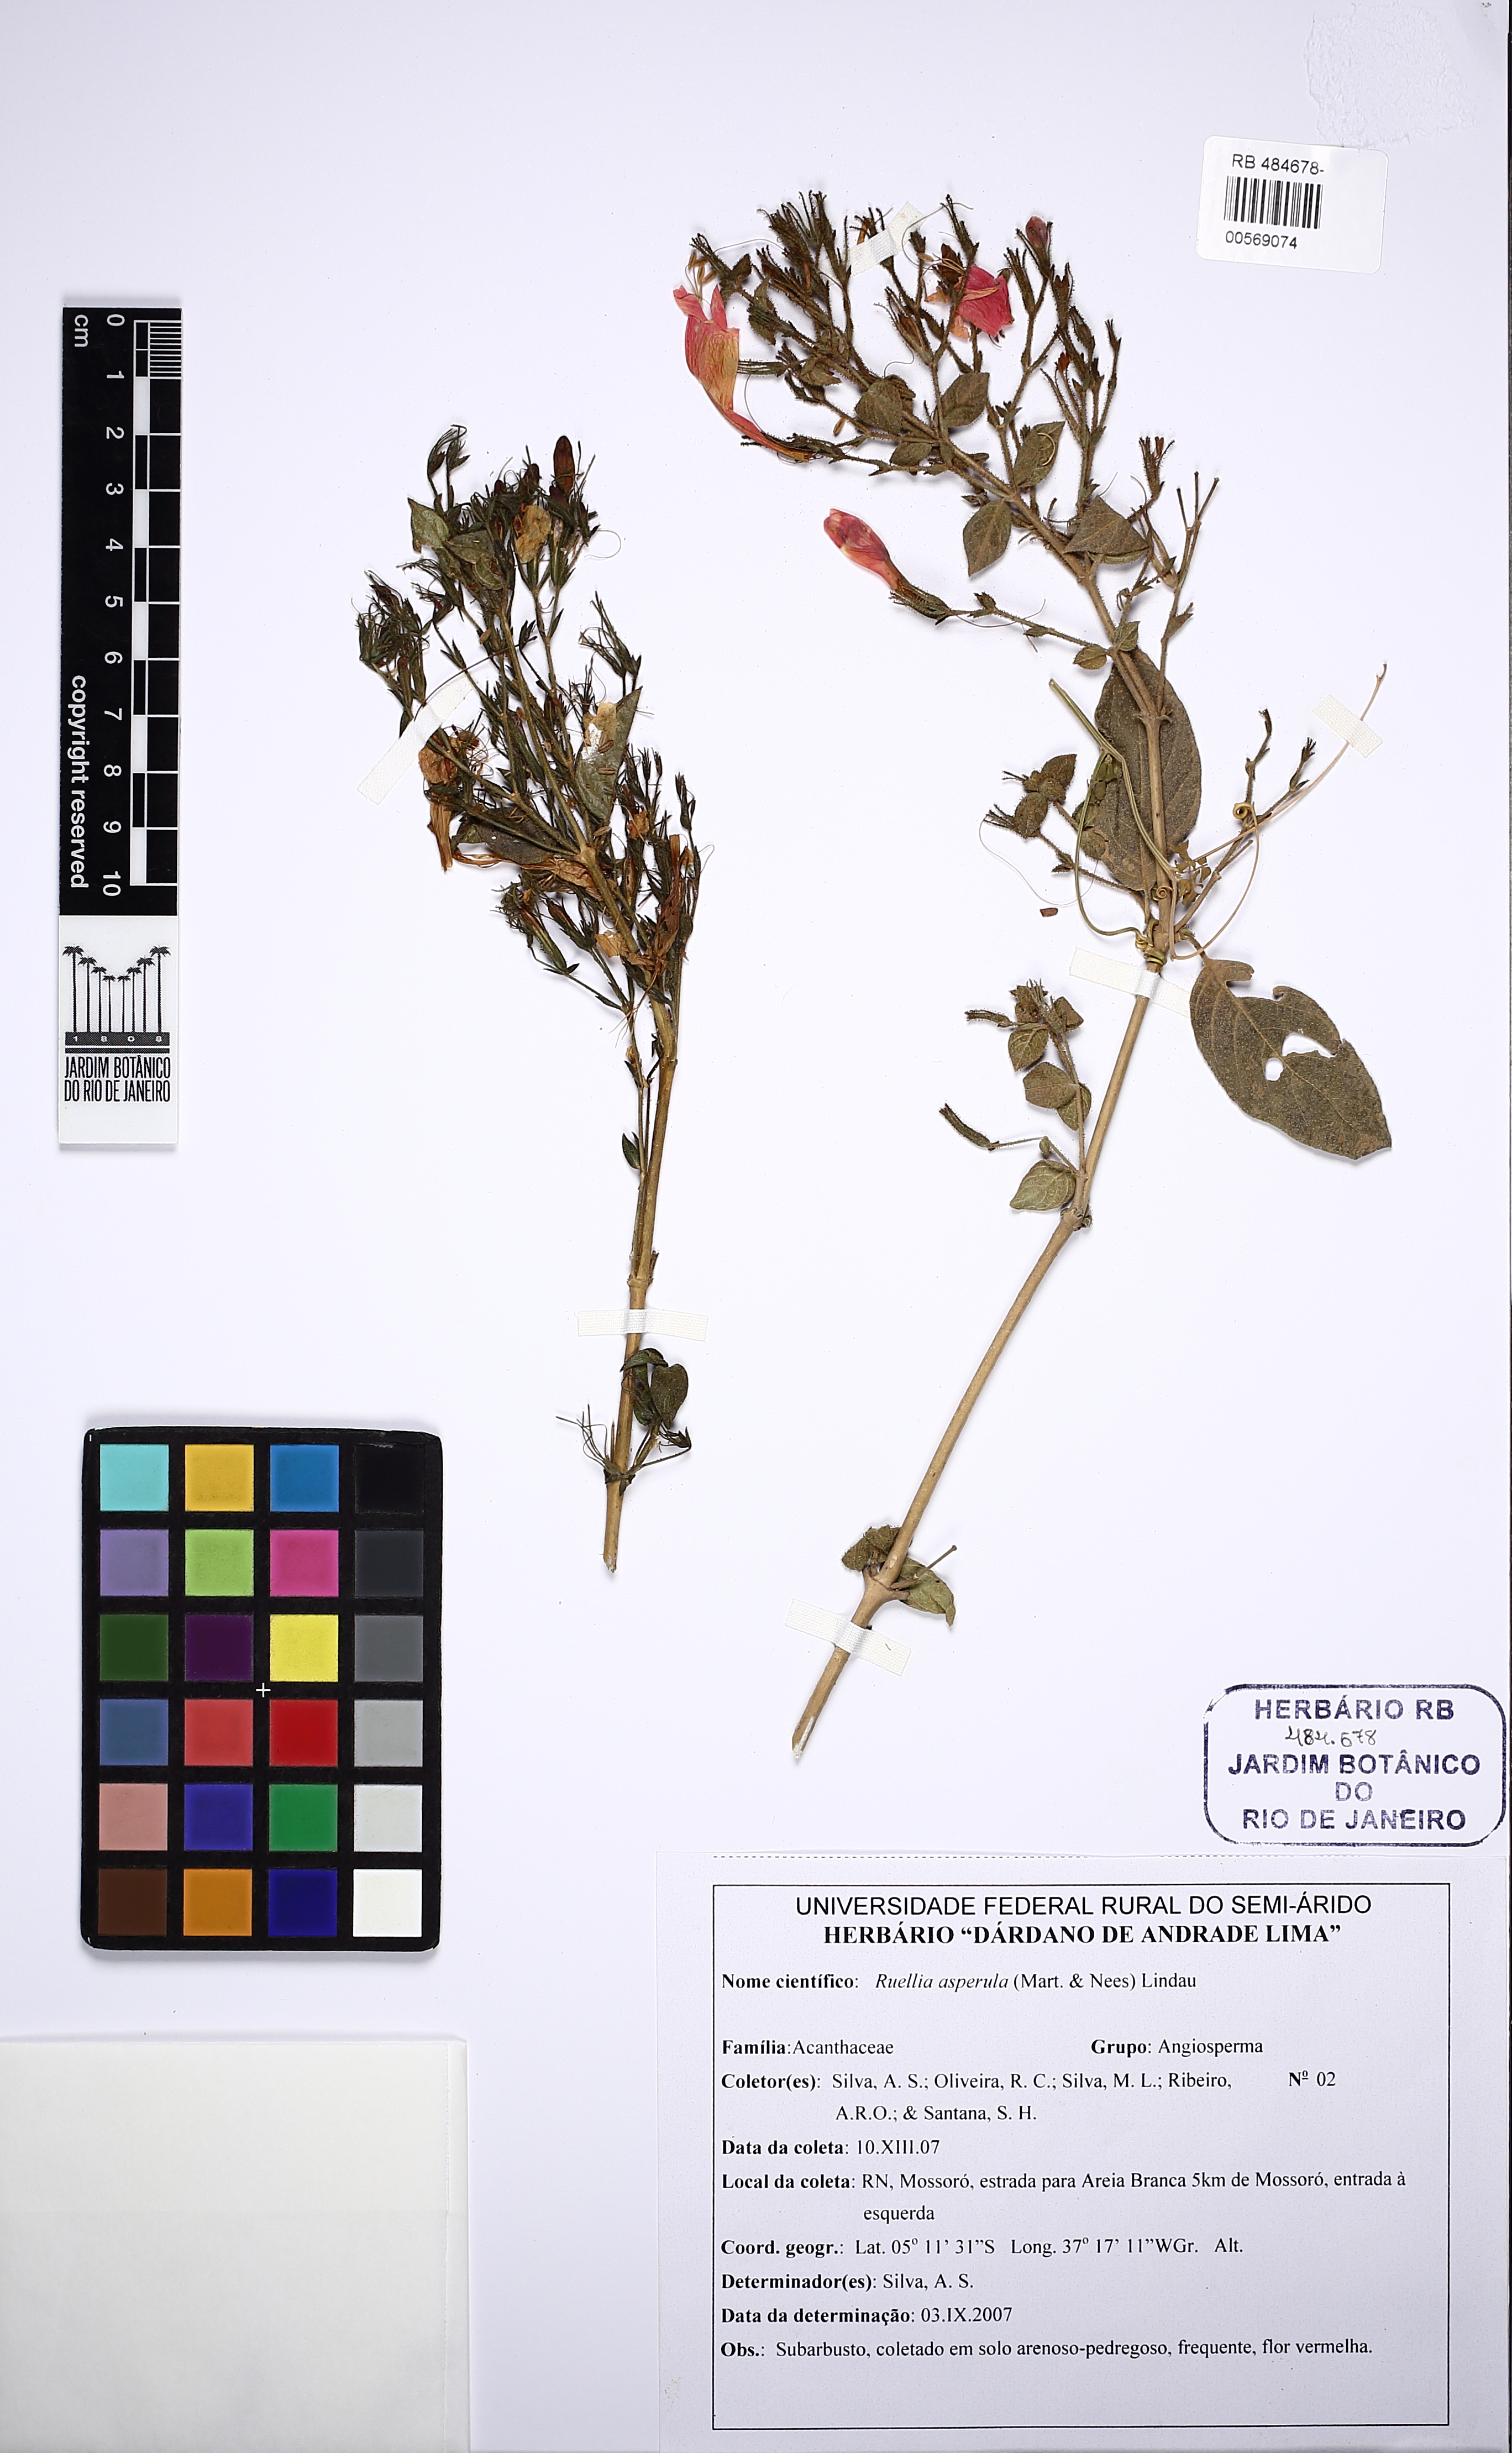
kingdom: Plantae
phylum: Tracheophyta
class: Magnoliopsida
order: Lamiales
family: Acanthaceae
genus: Ruellia
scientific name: Ruellia asperula
